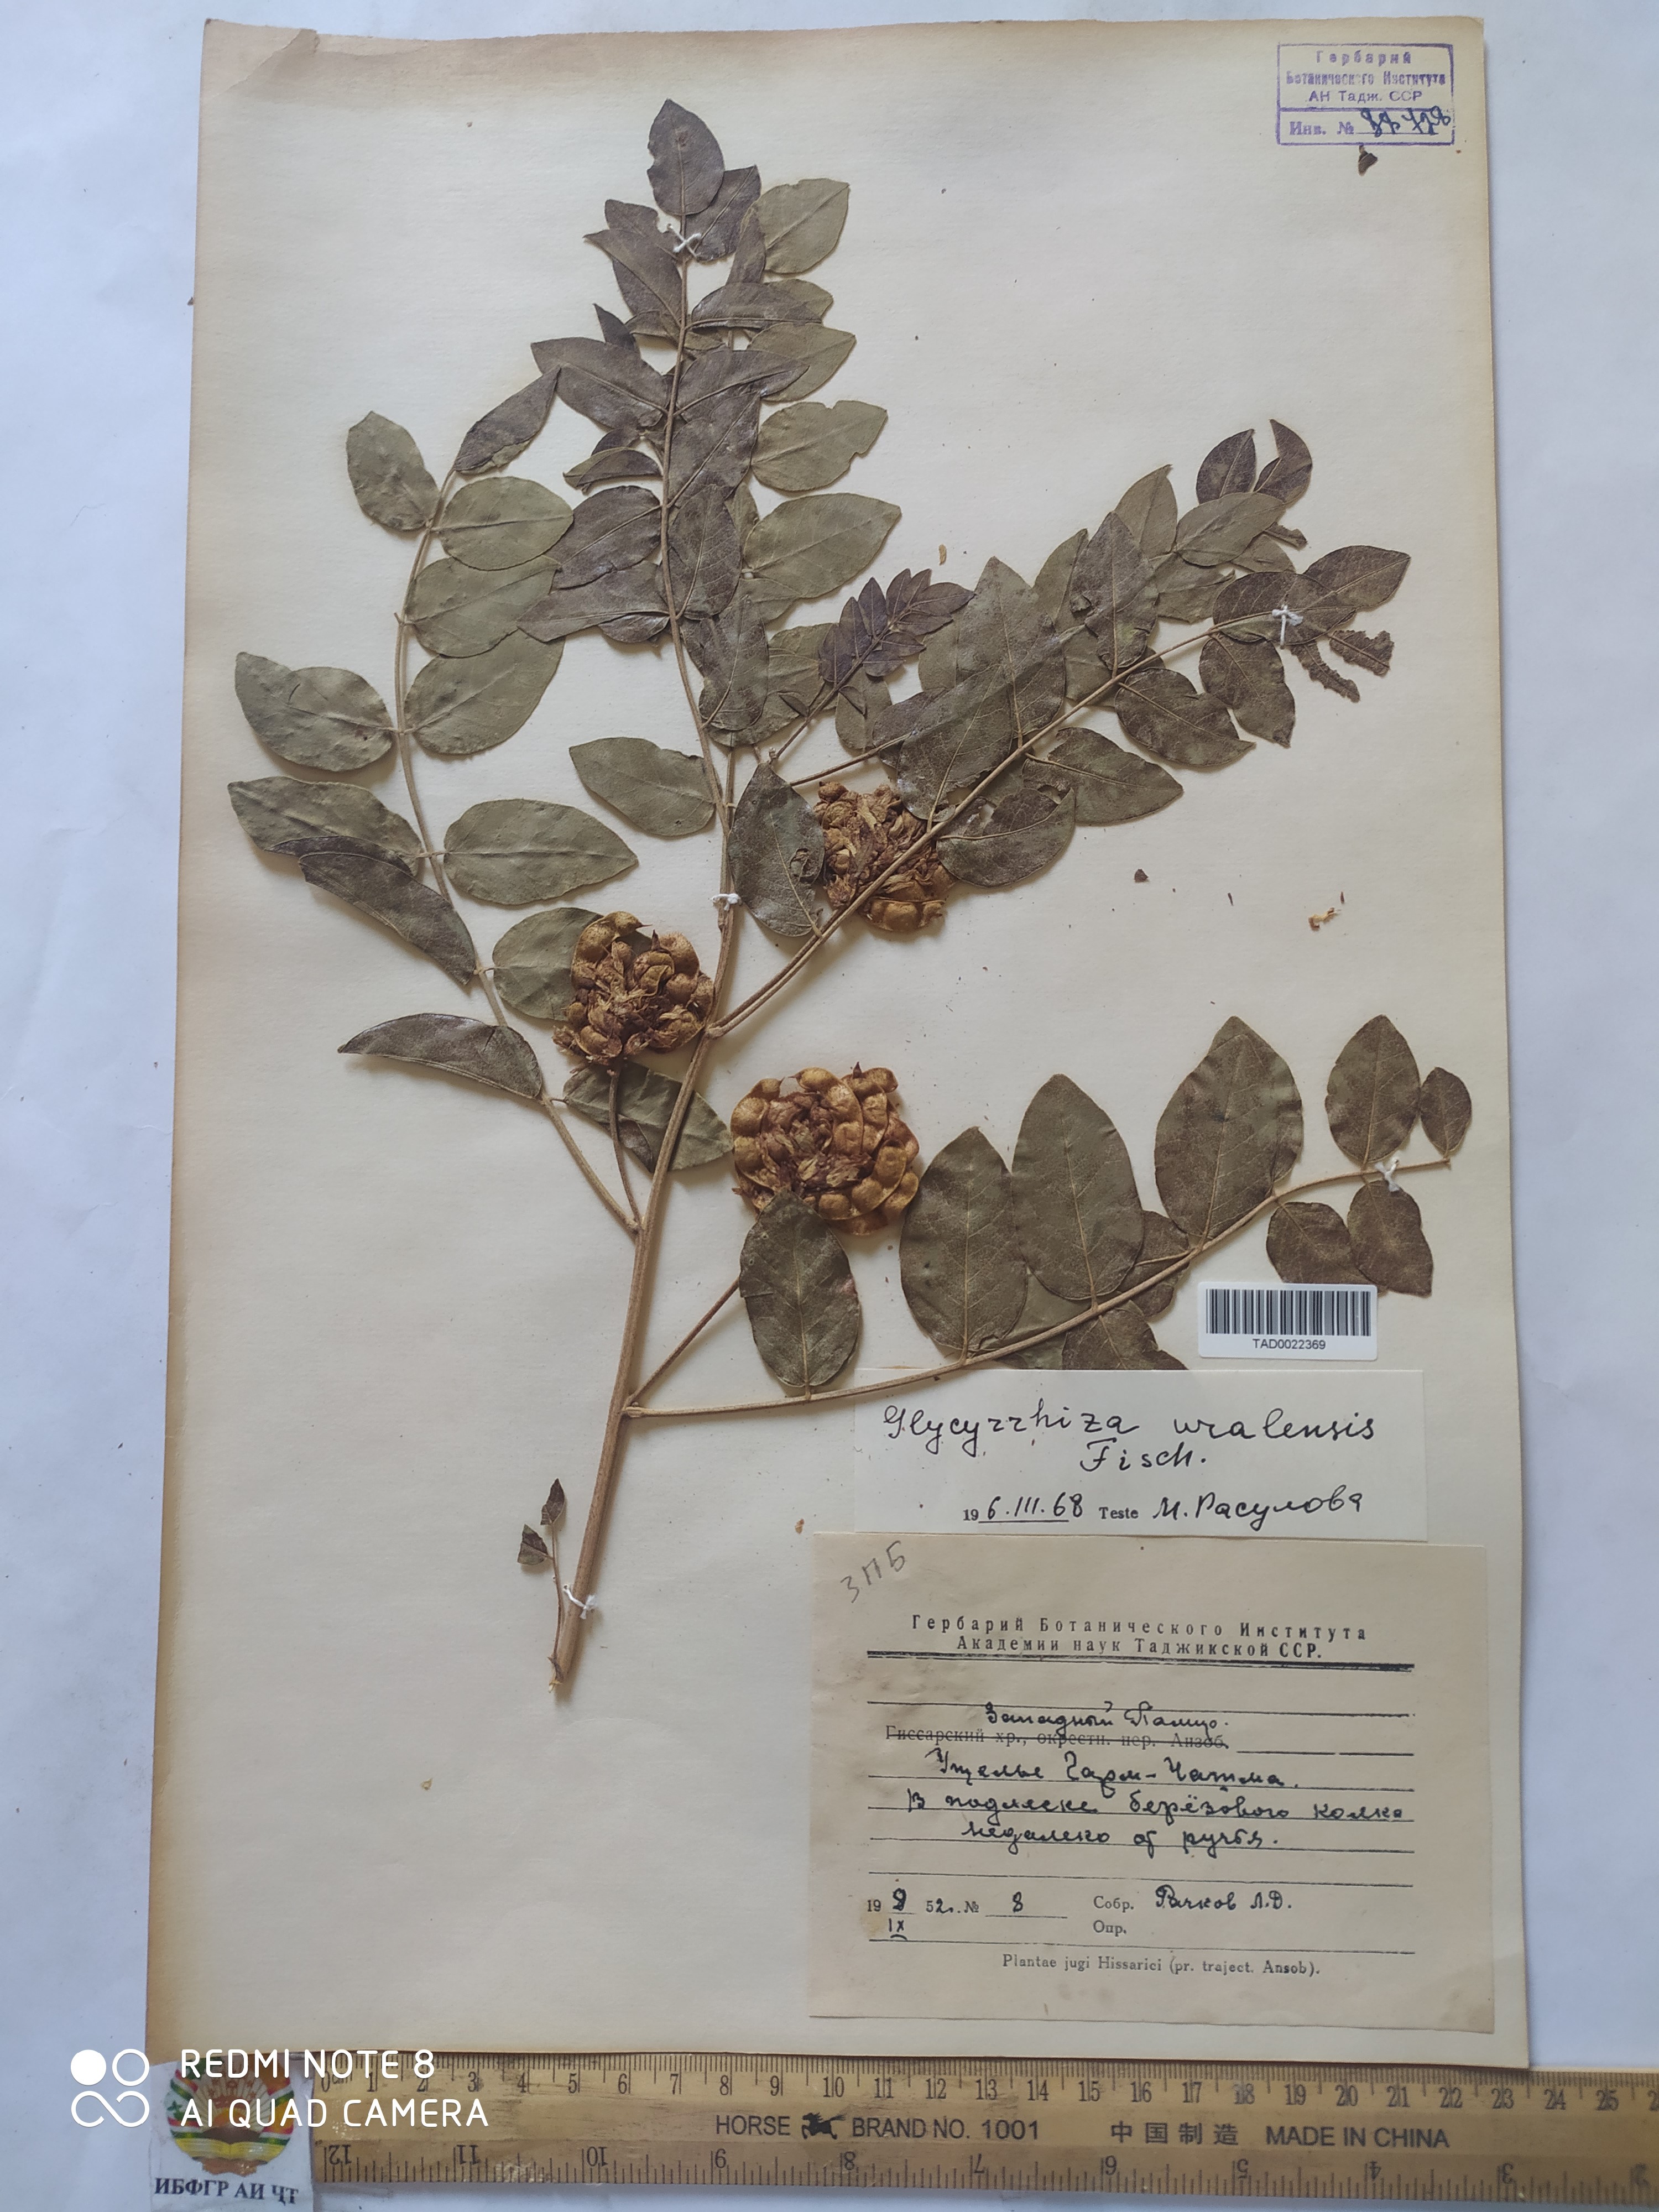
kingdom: Plantae
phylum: Tracheophyta
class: Magnoliopsida
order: Fabales
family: Fabaceae
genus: Glycyrrhiza
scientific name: Glycyrrhiza uralensis
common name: Chinese licorice
